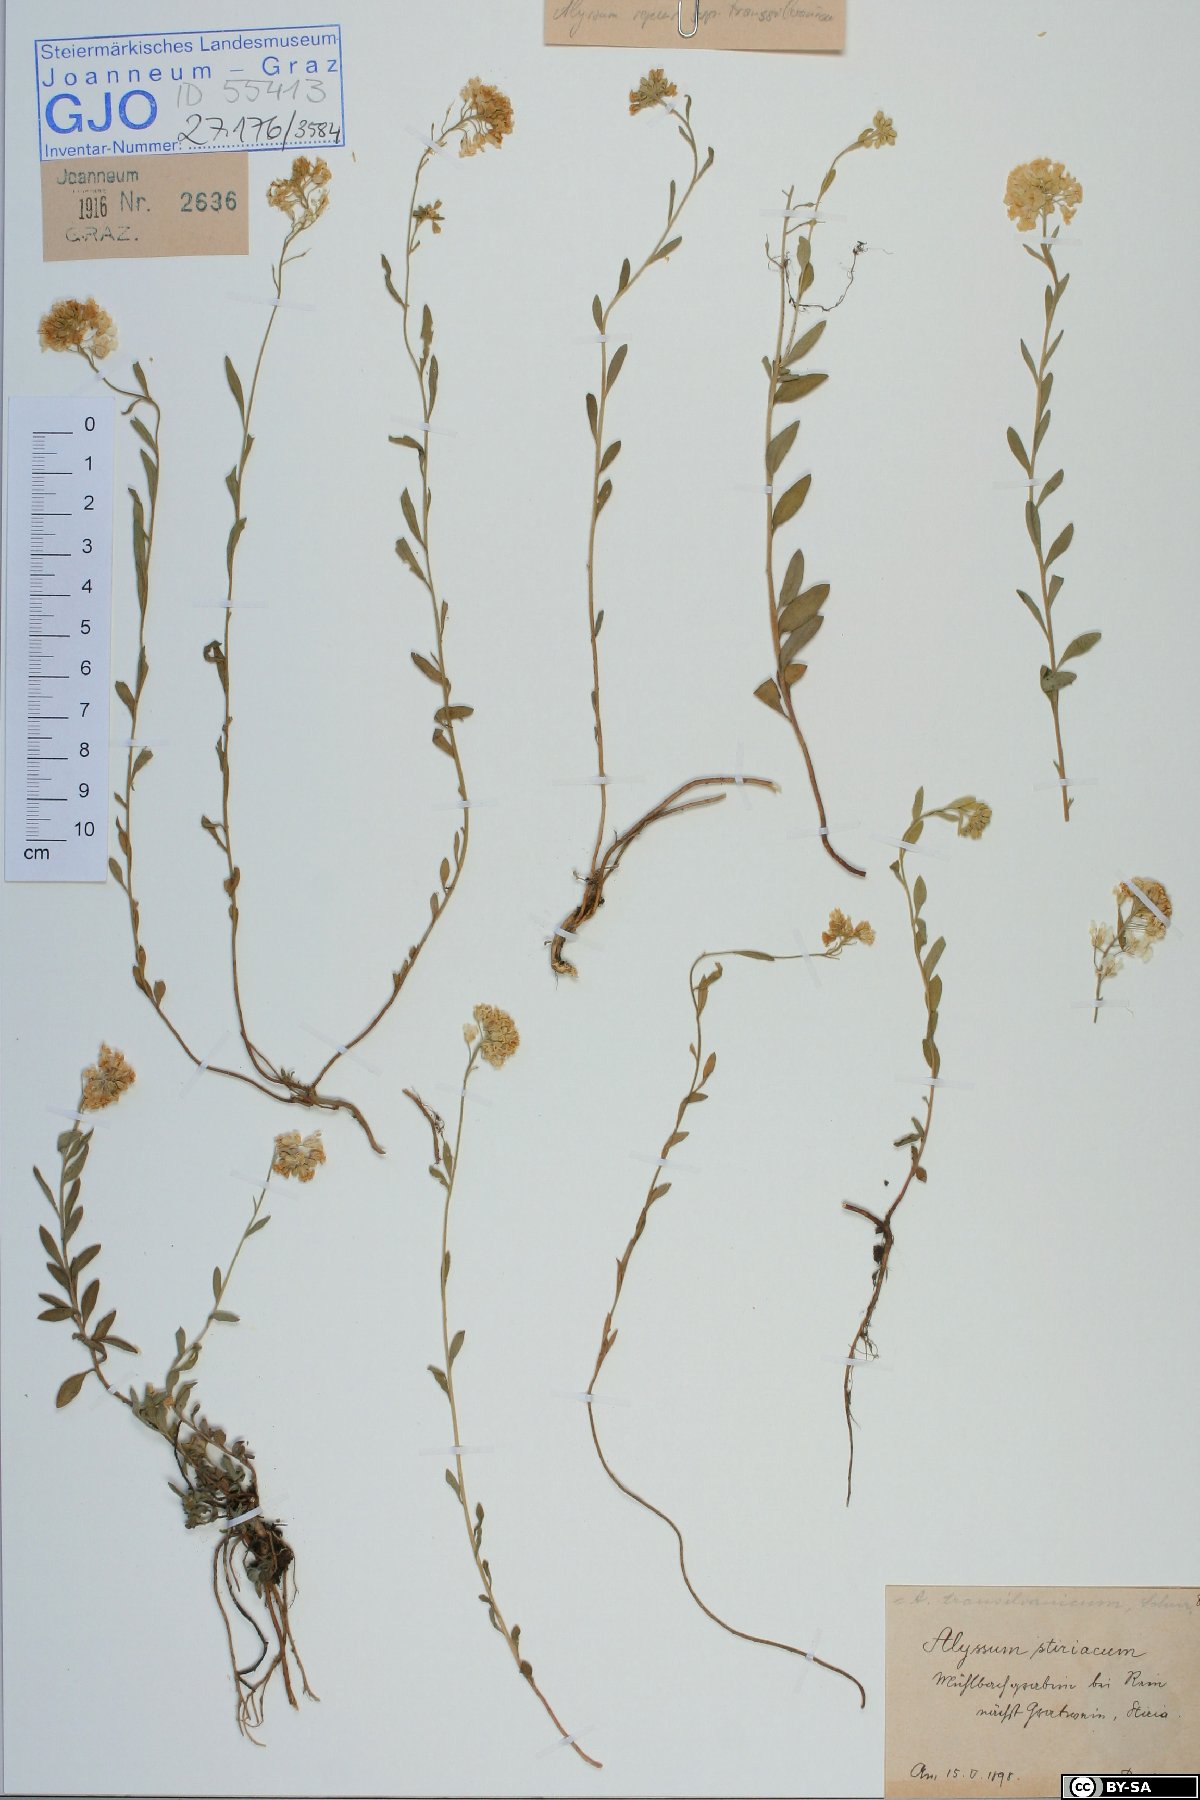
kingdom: Plantae
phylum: Tracheophyta
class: Magnoliopsida
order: Brassicales
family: Brassicaceae
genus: Alyssum
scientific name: Alyssum repens
